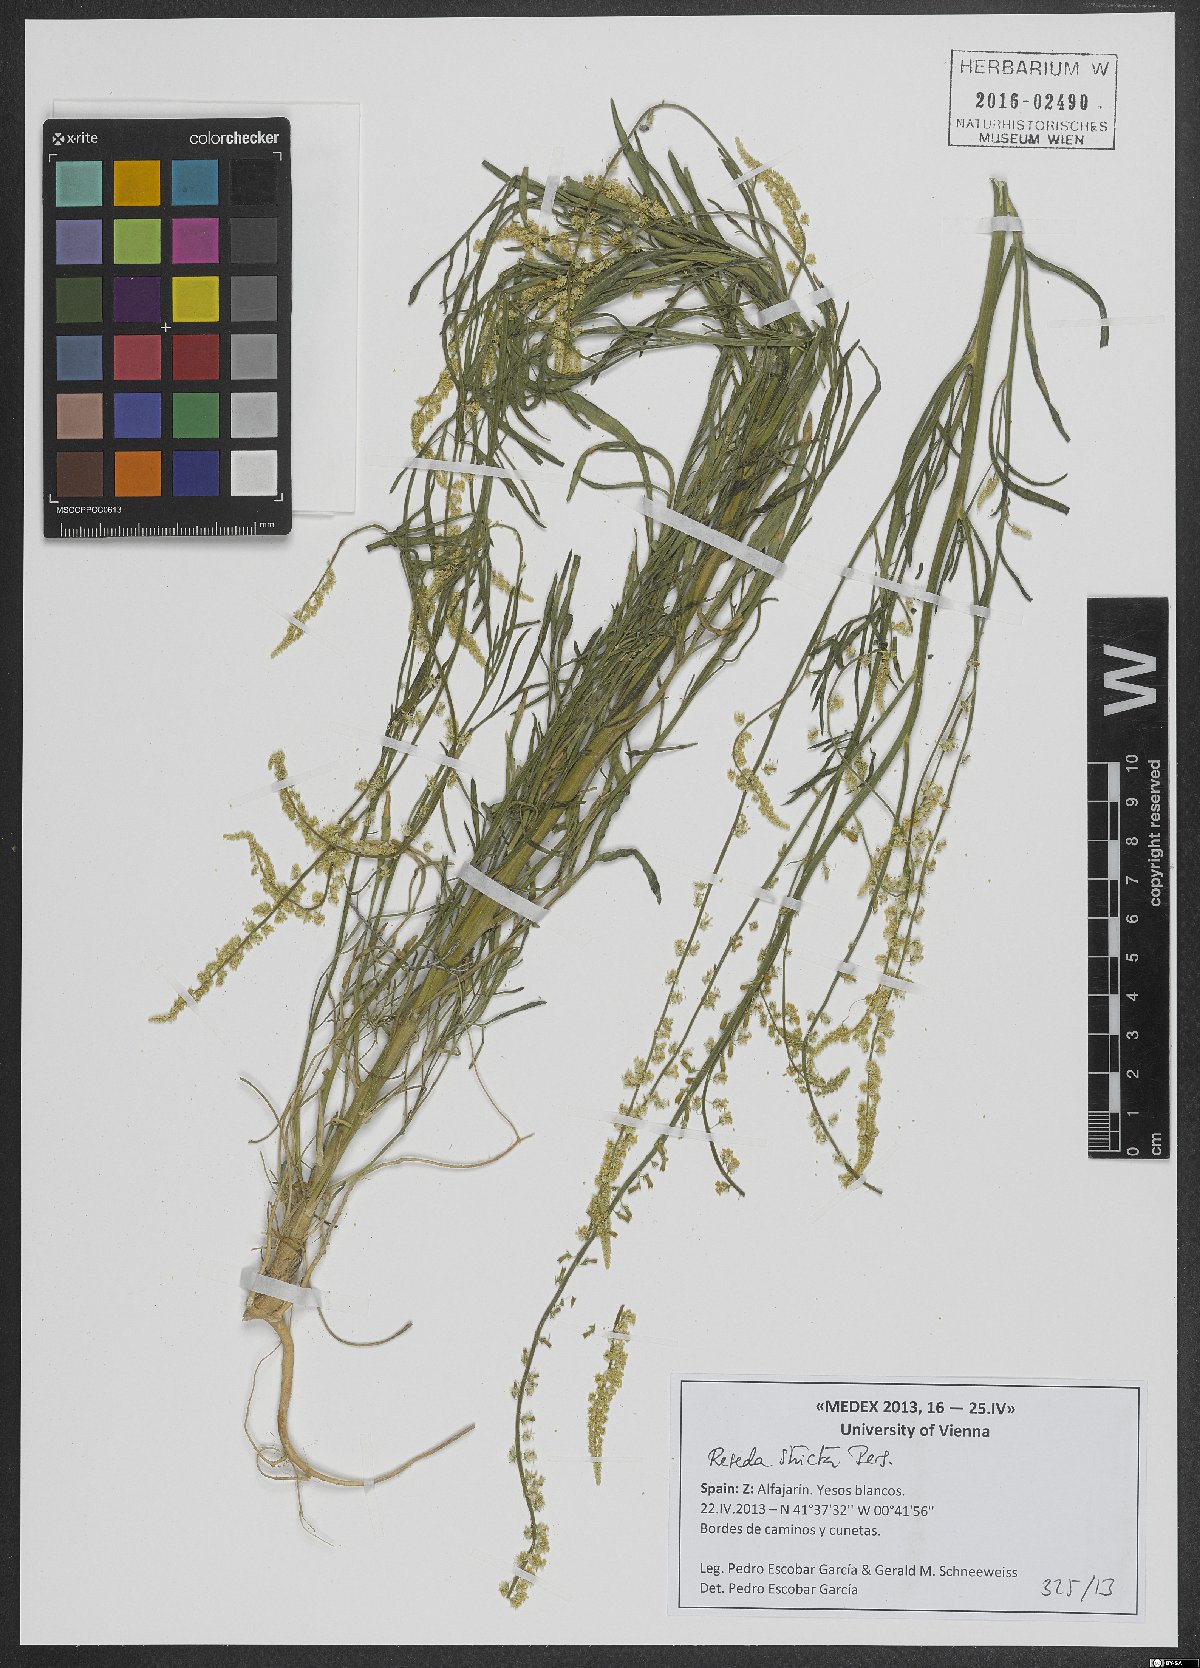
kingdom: Plantae
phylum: Tracheophyta
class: Magnoliopsida
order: Brassicales
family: Resedaceae
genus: Reseda
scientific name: Reseda stricta
